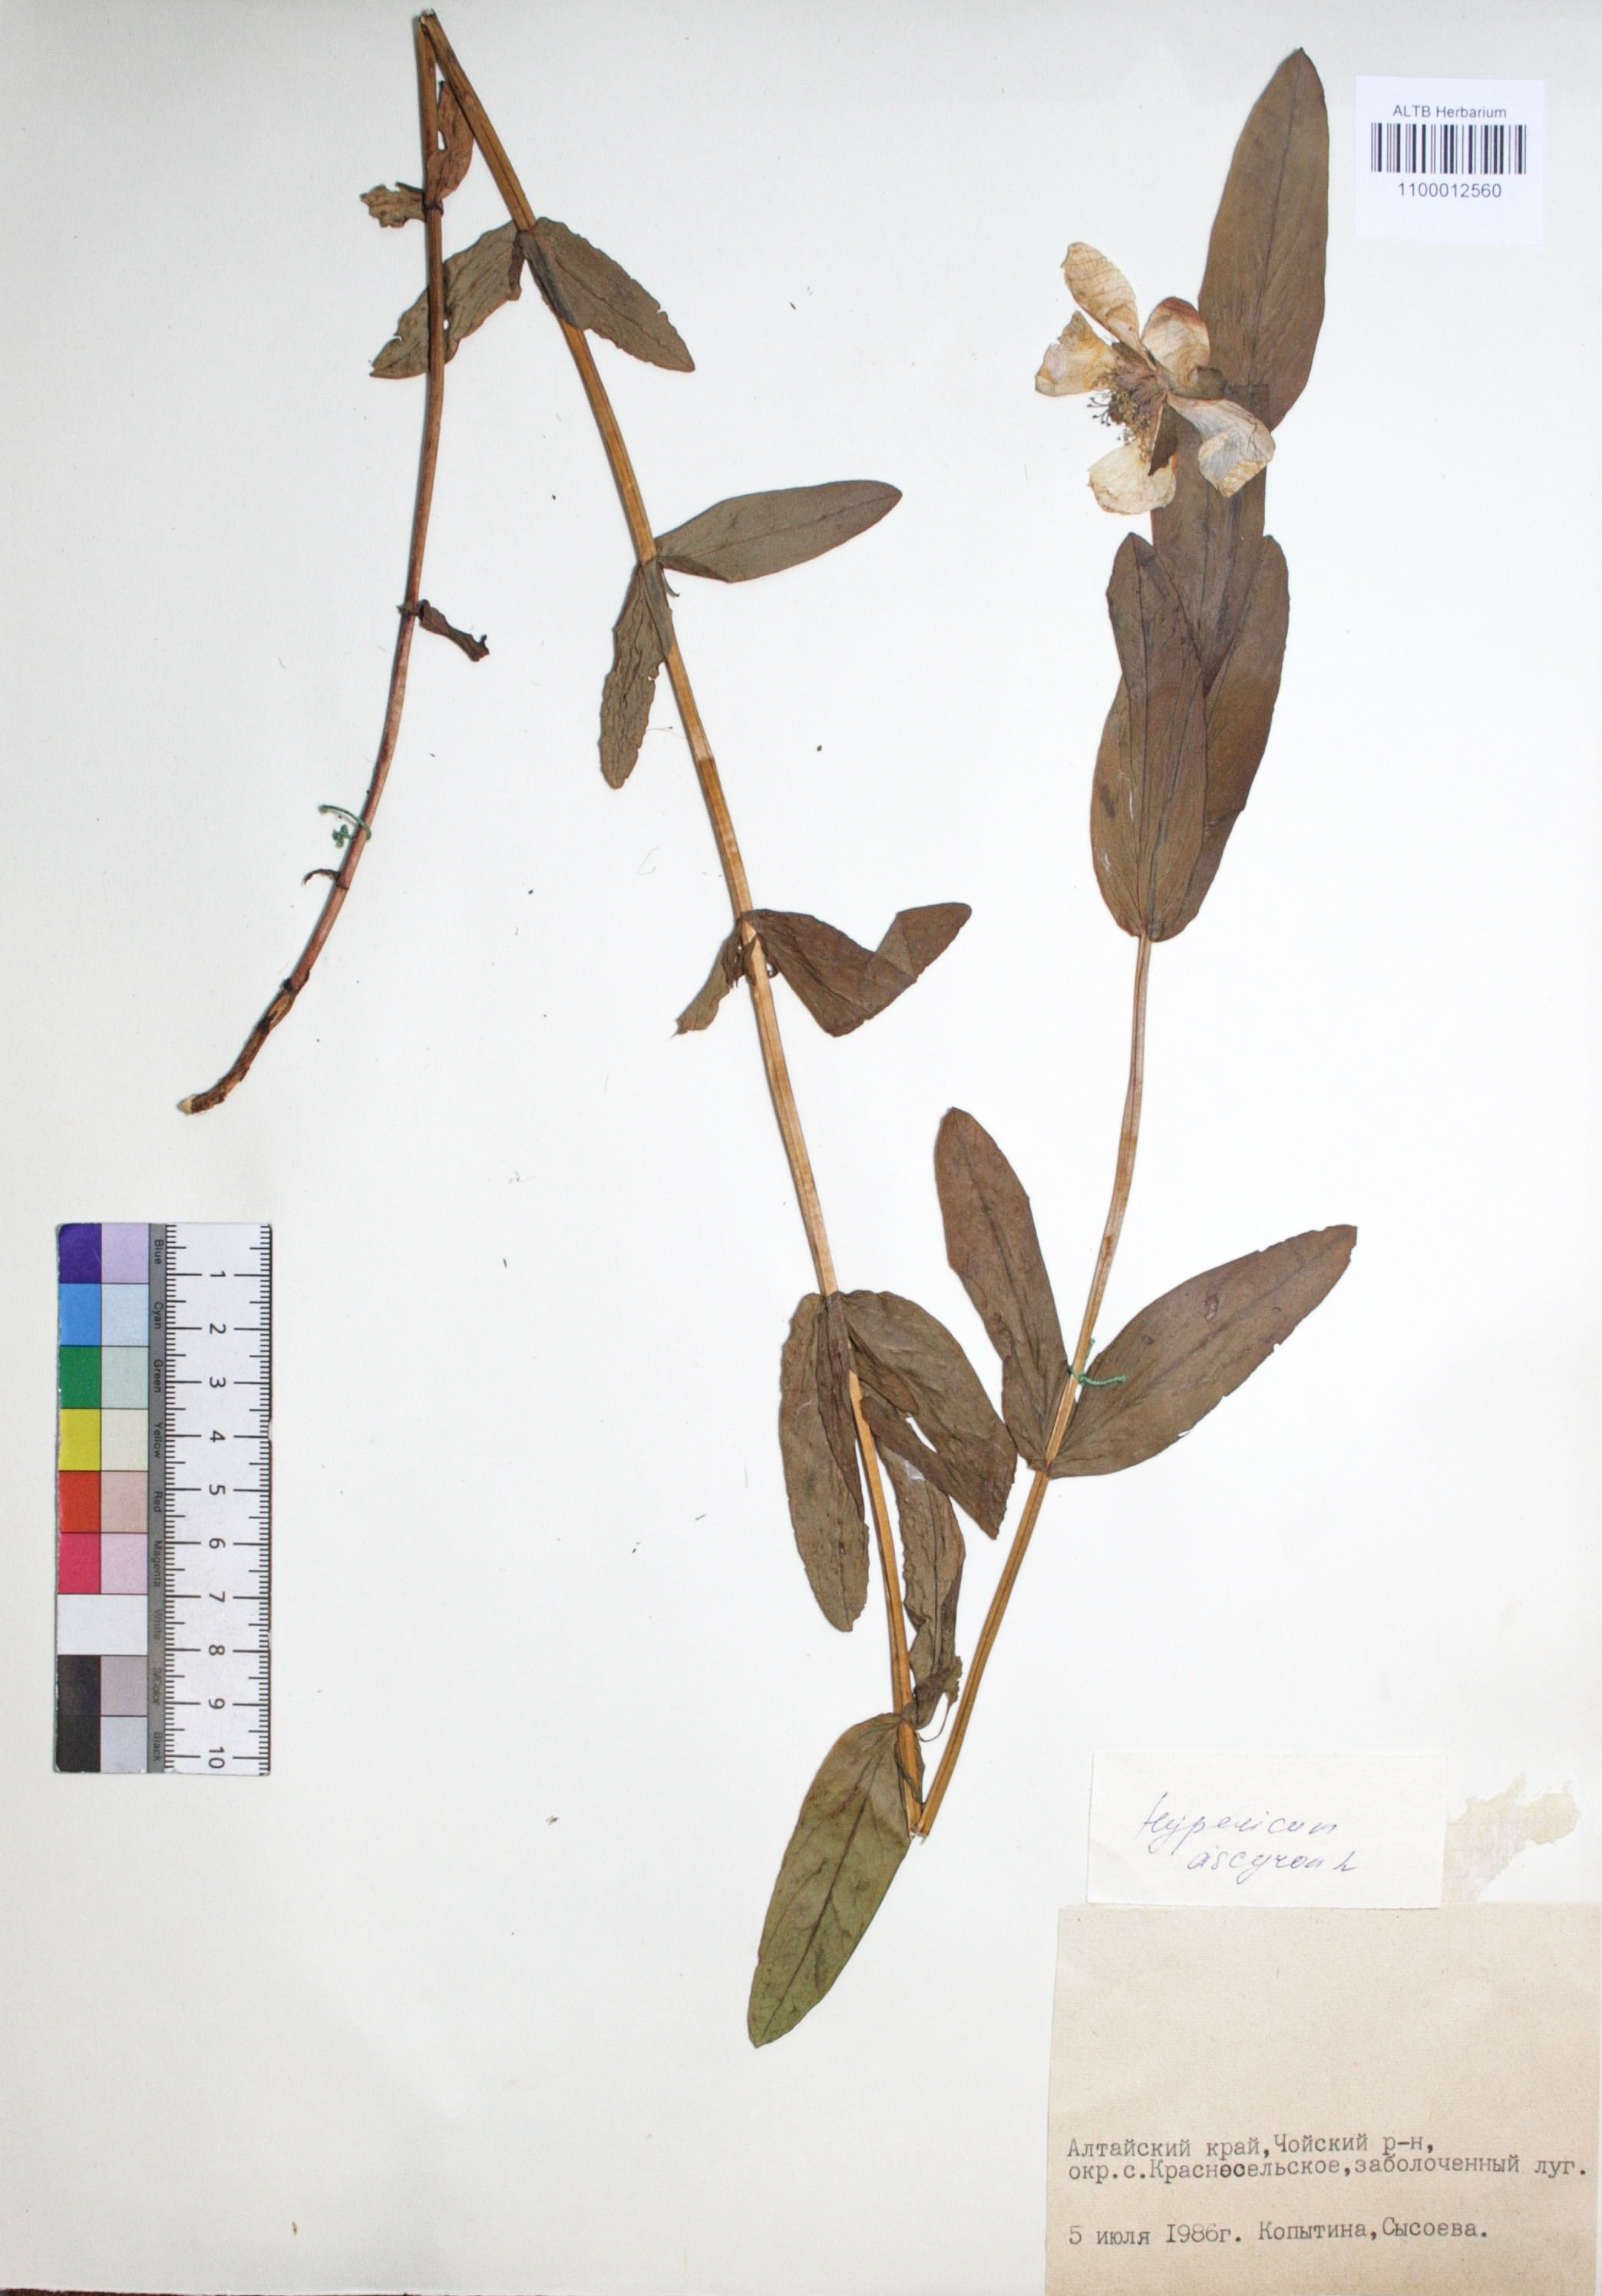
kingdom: Plantae
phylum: Tracheophyta
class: Magnoliopsida
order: Malpighiales
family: Hypericaceae
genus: Hypericum
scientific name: Hypericum ascyron
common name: Giant st. john's-wort
